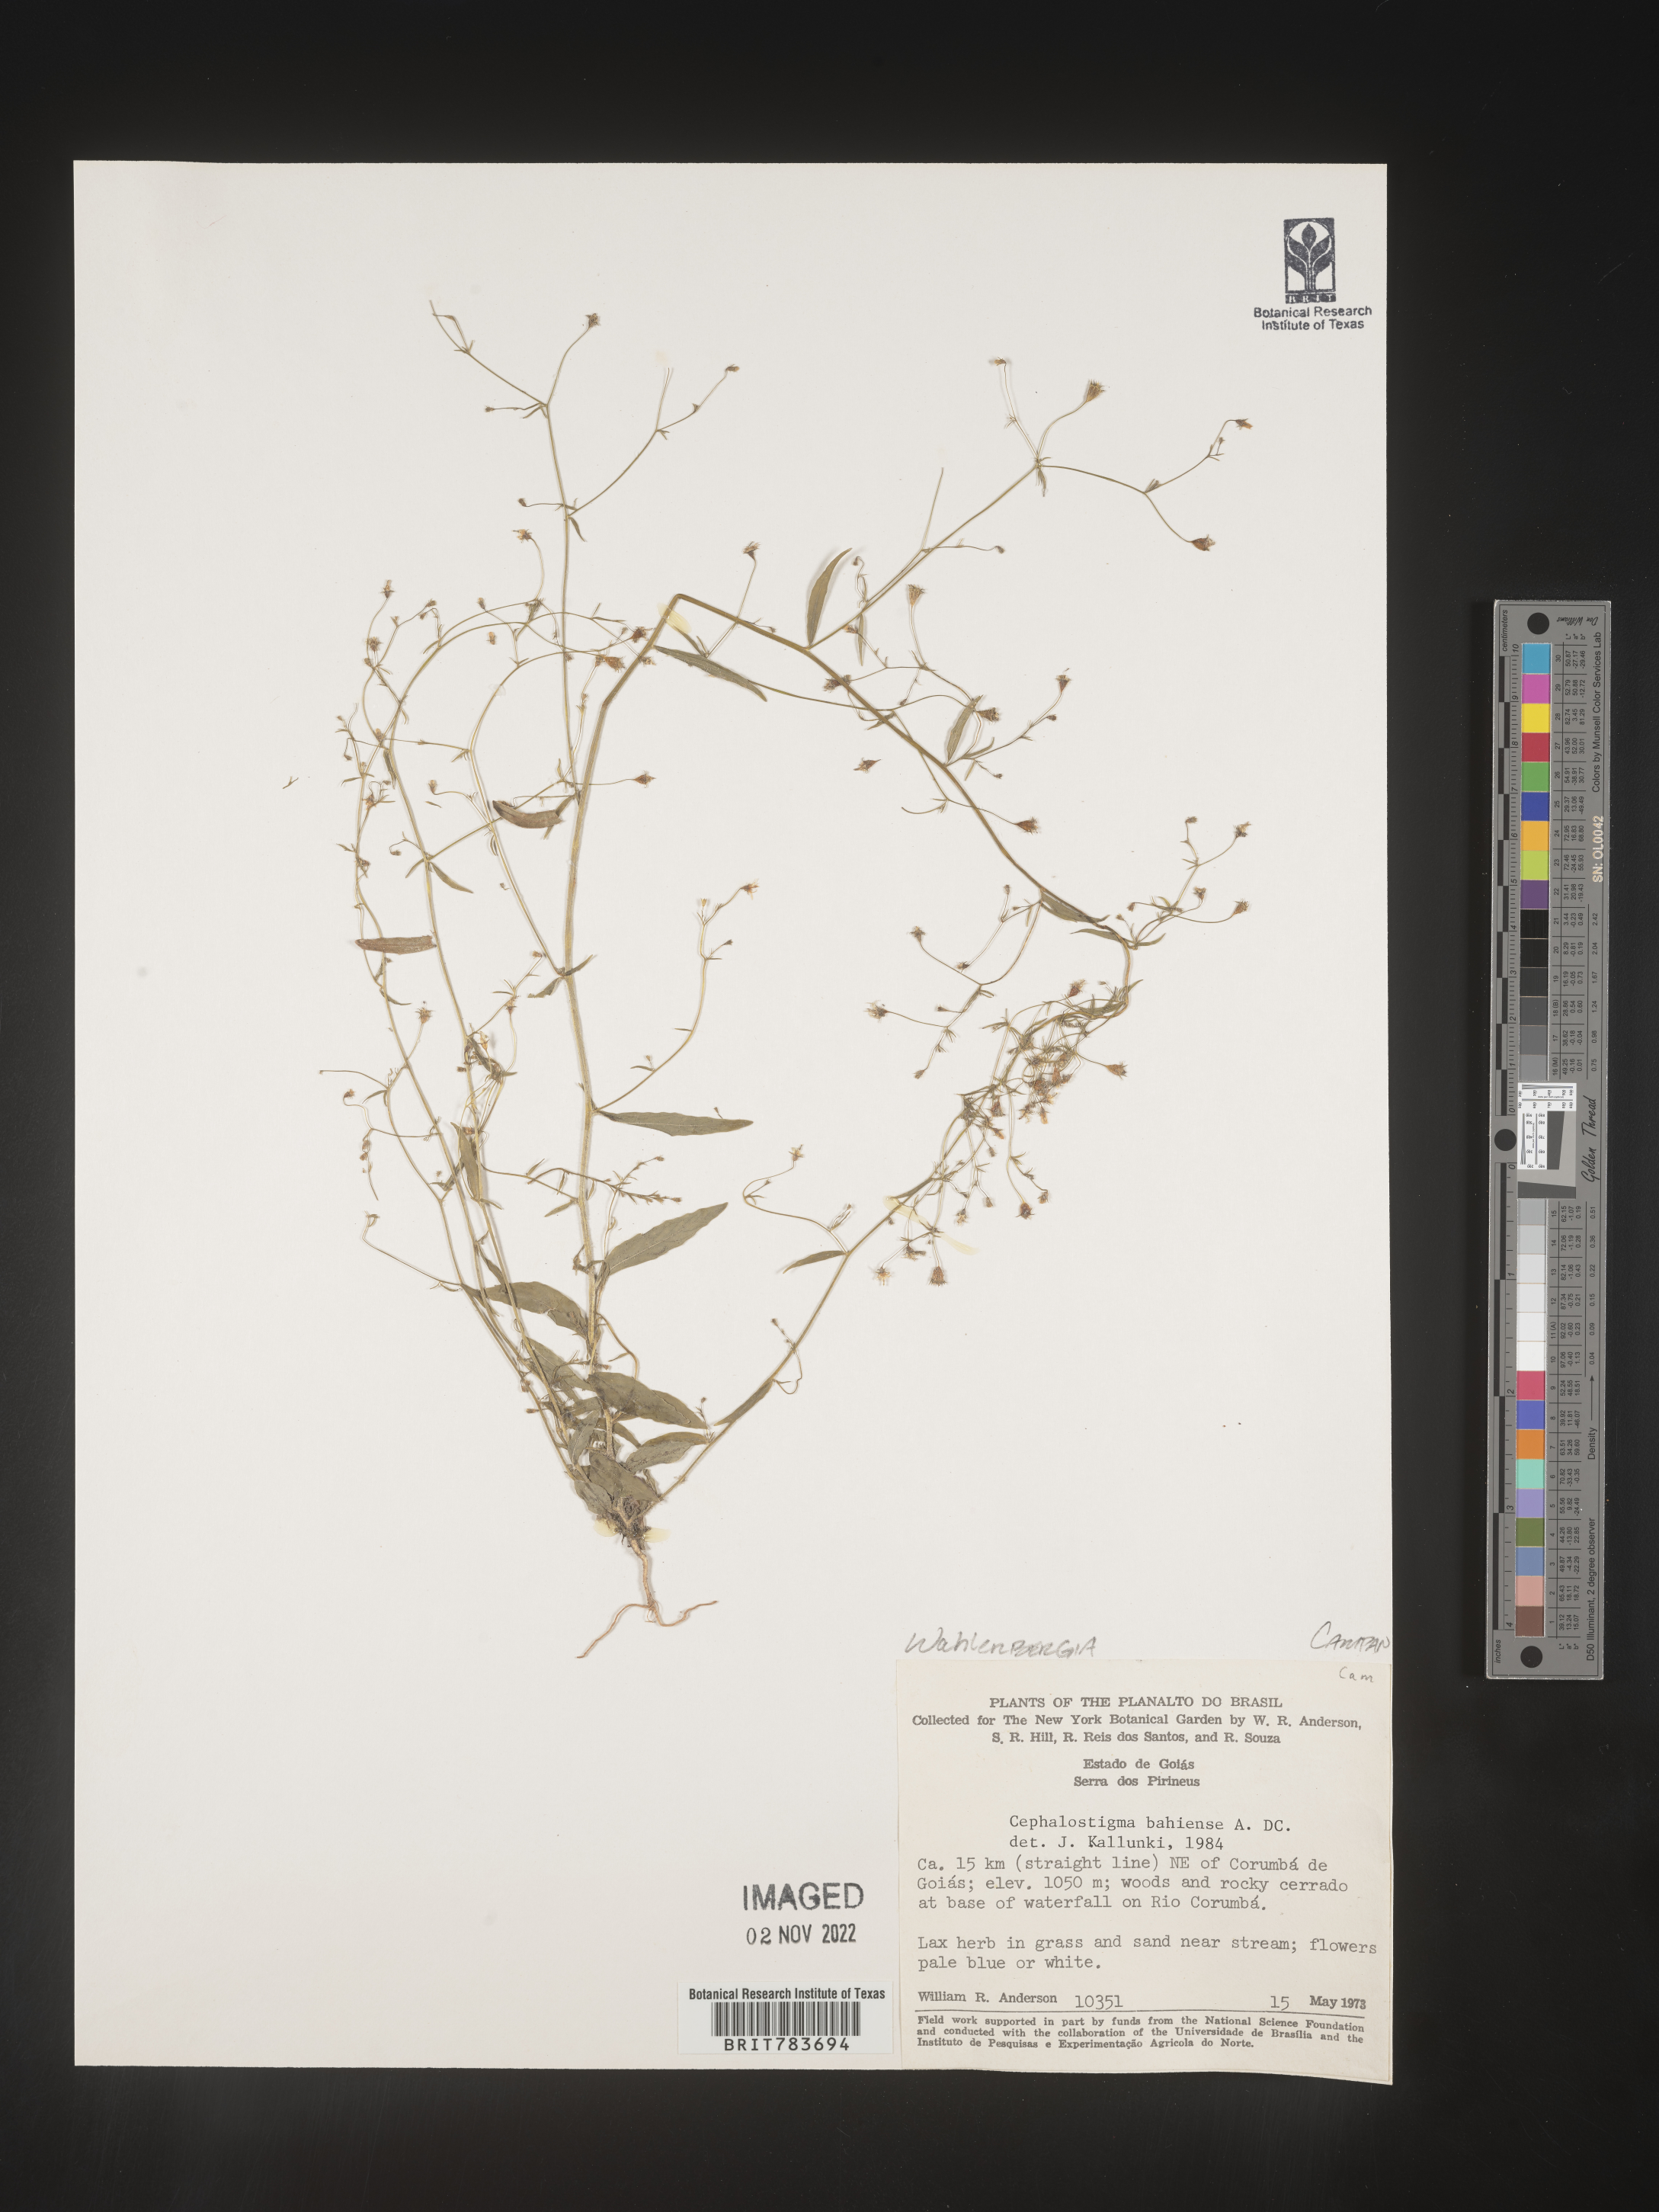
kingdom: Plantae
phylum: Tracheophyta
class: Magnoliopsida
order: Asterales
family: Campanulaceae
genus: Wahlenbergia
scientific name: Wahlenbergia
